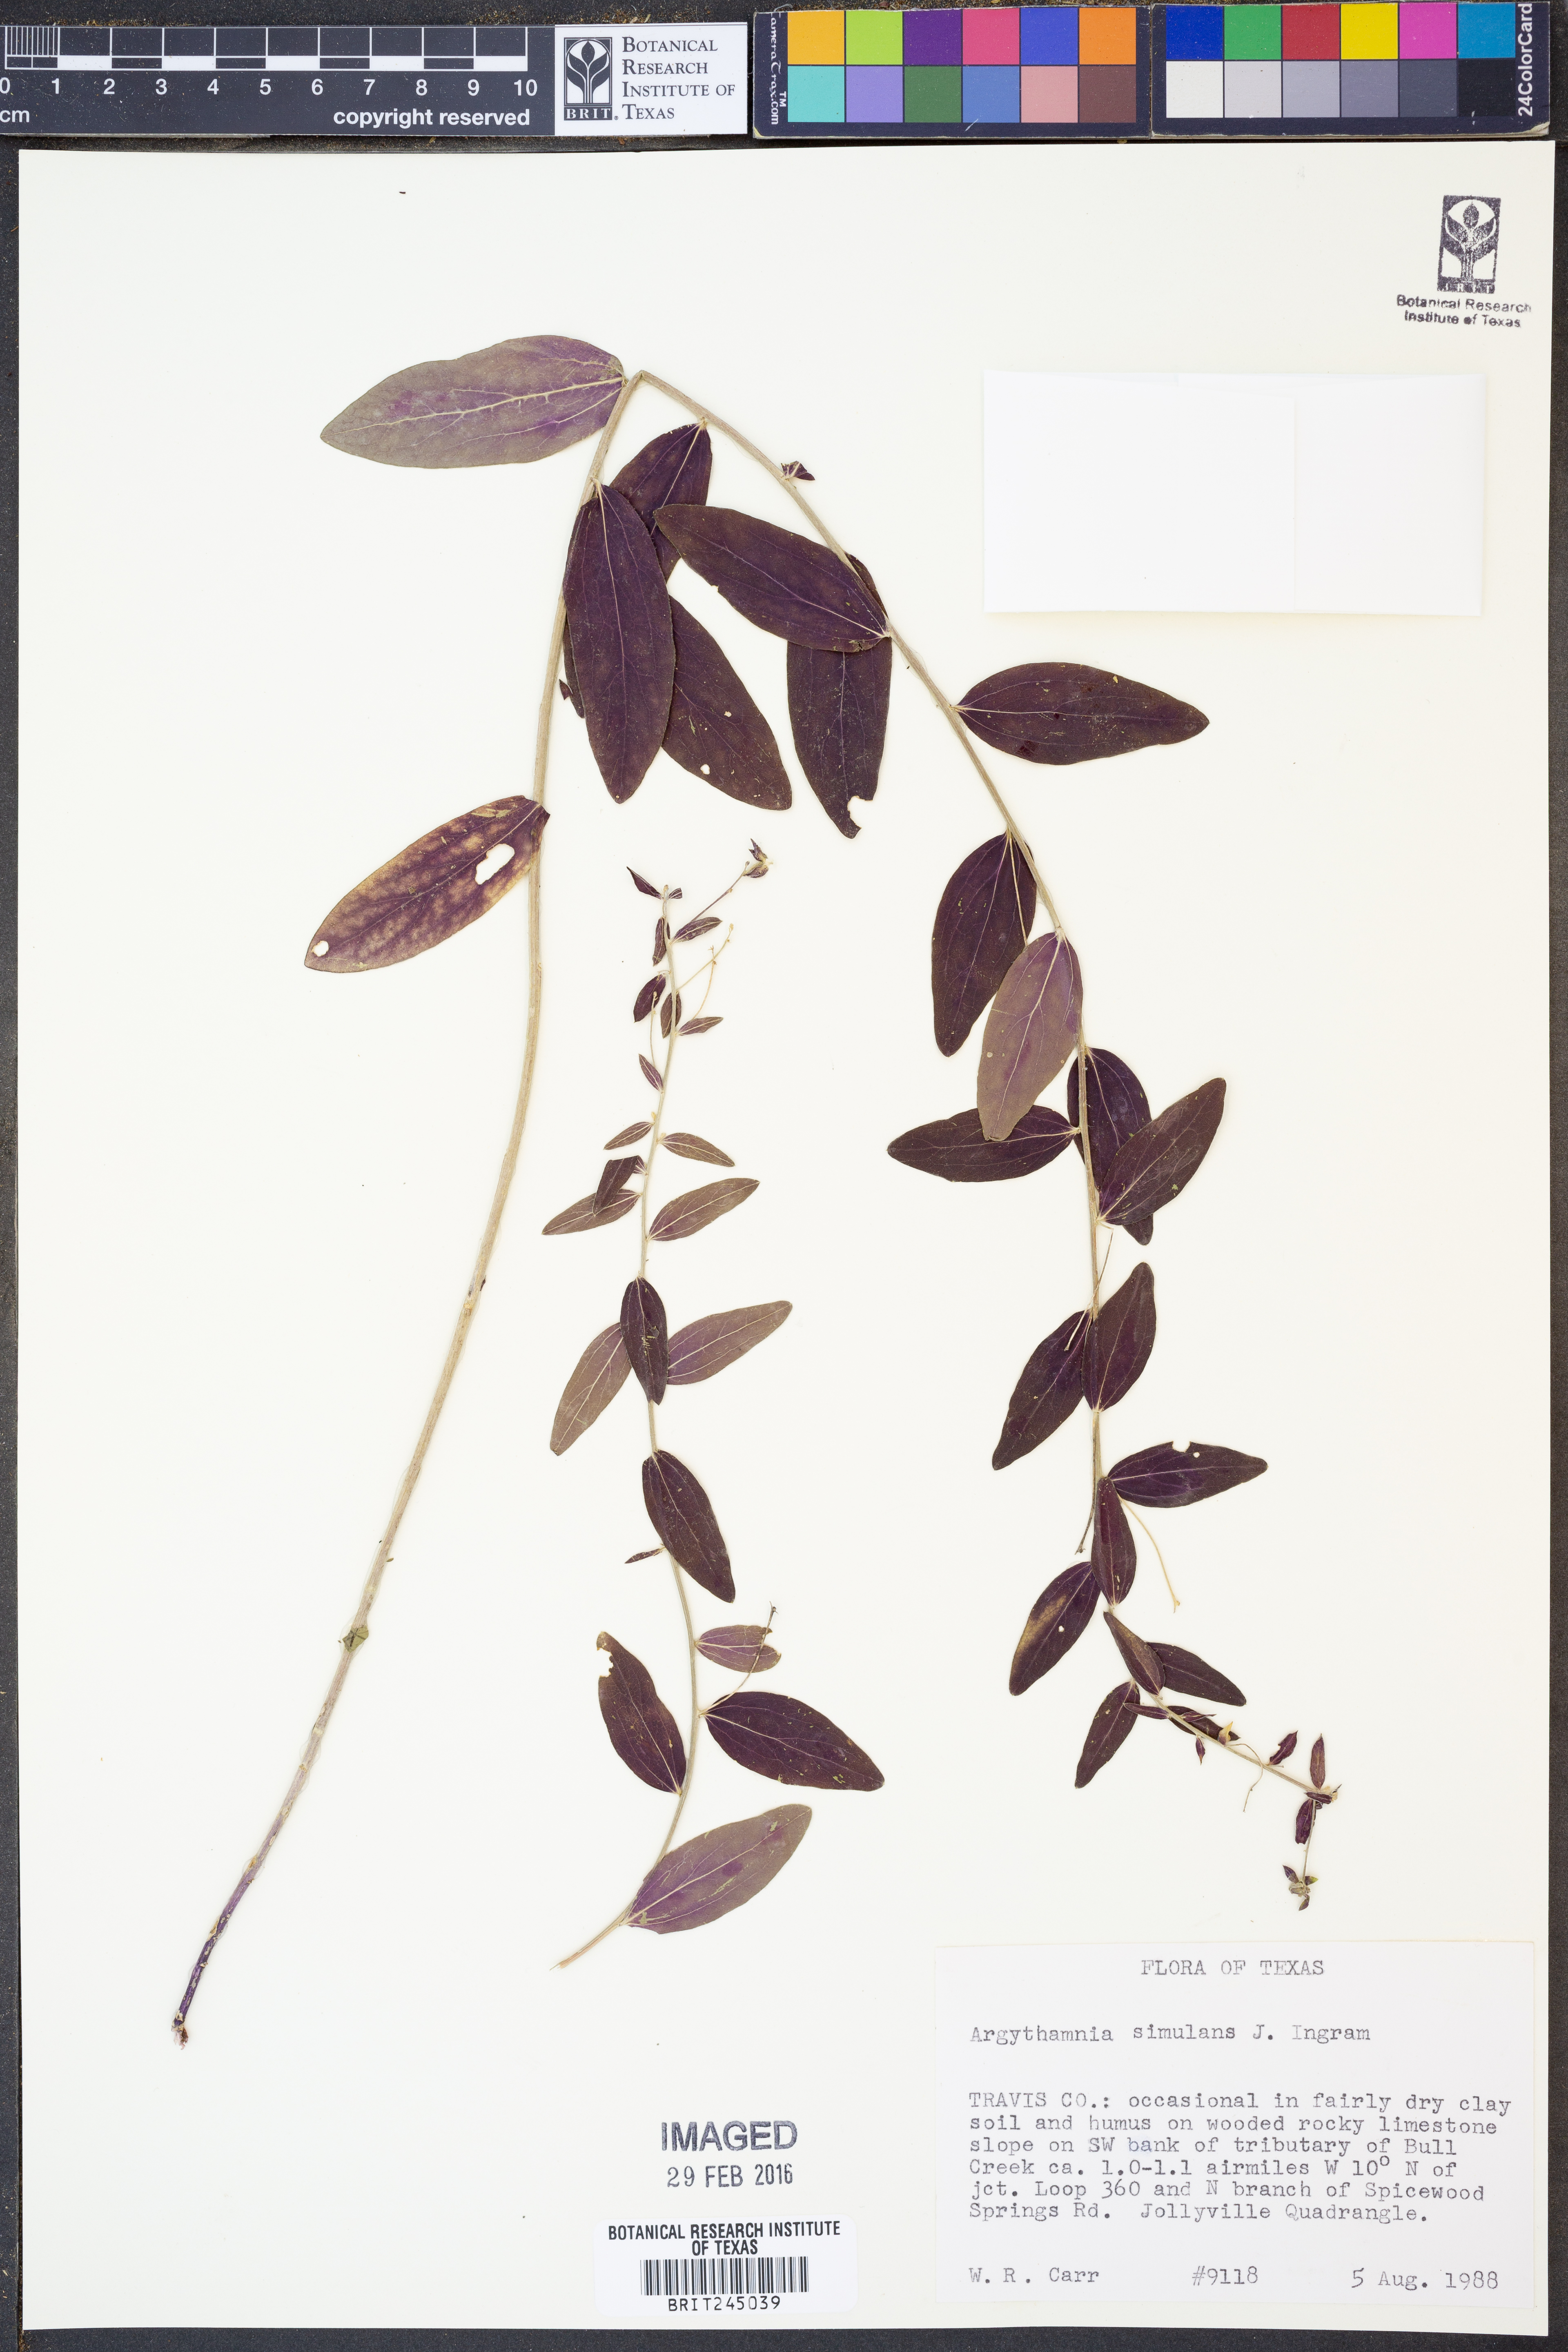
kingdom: Plantae
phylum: Tracheophyta
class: Magnoliopsida
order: Malpighiales
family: Euphorbiaceae
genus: Ditaxis
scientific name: Ditaxis simulans
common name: Plateau silverbush
